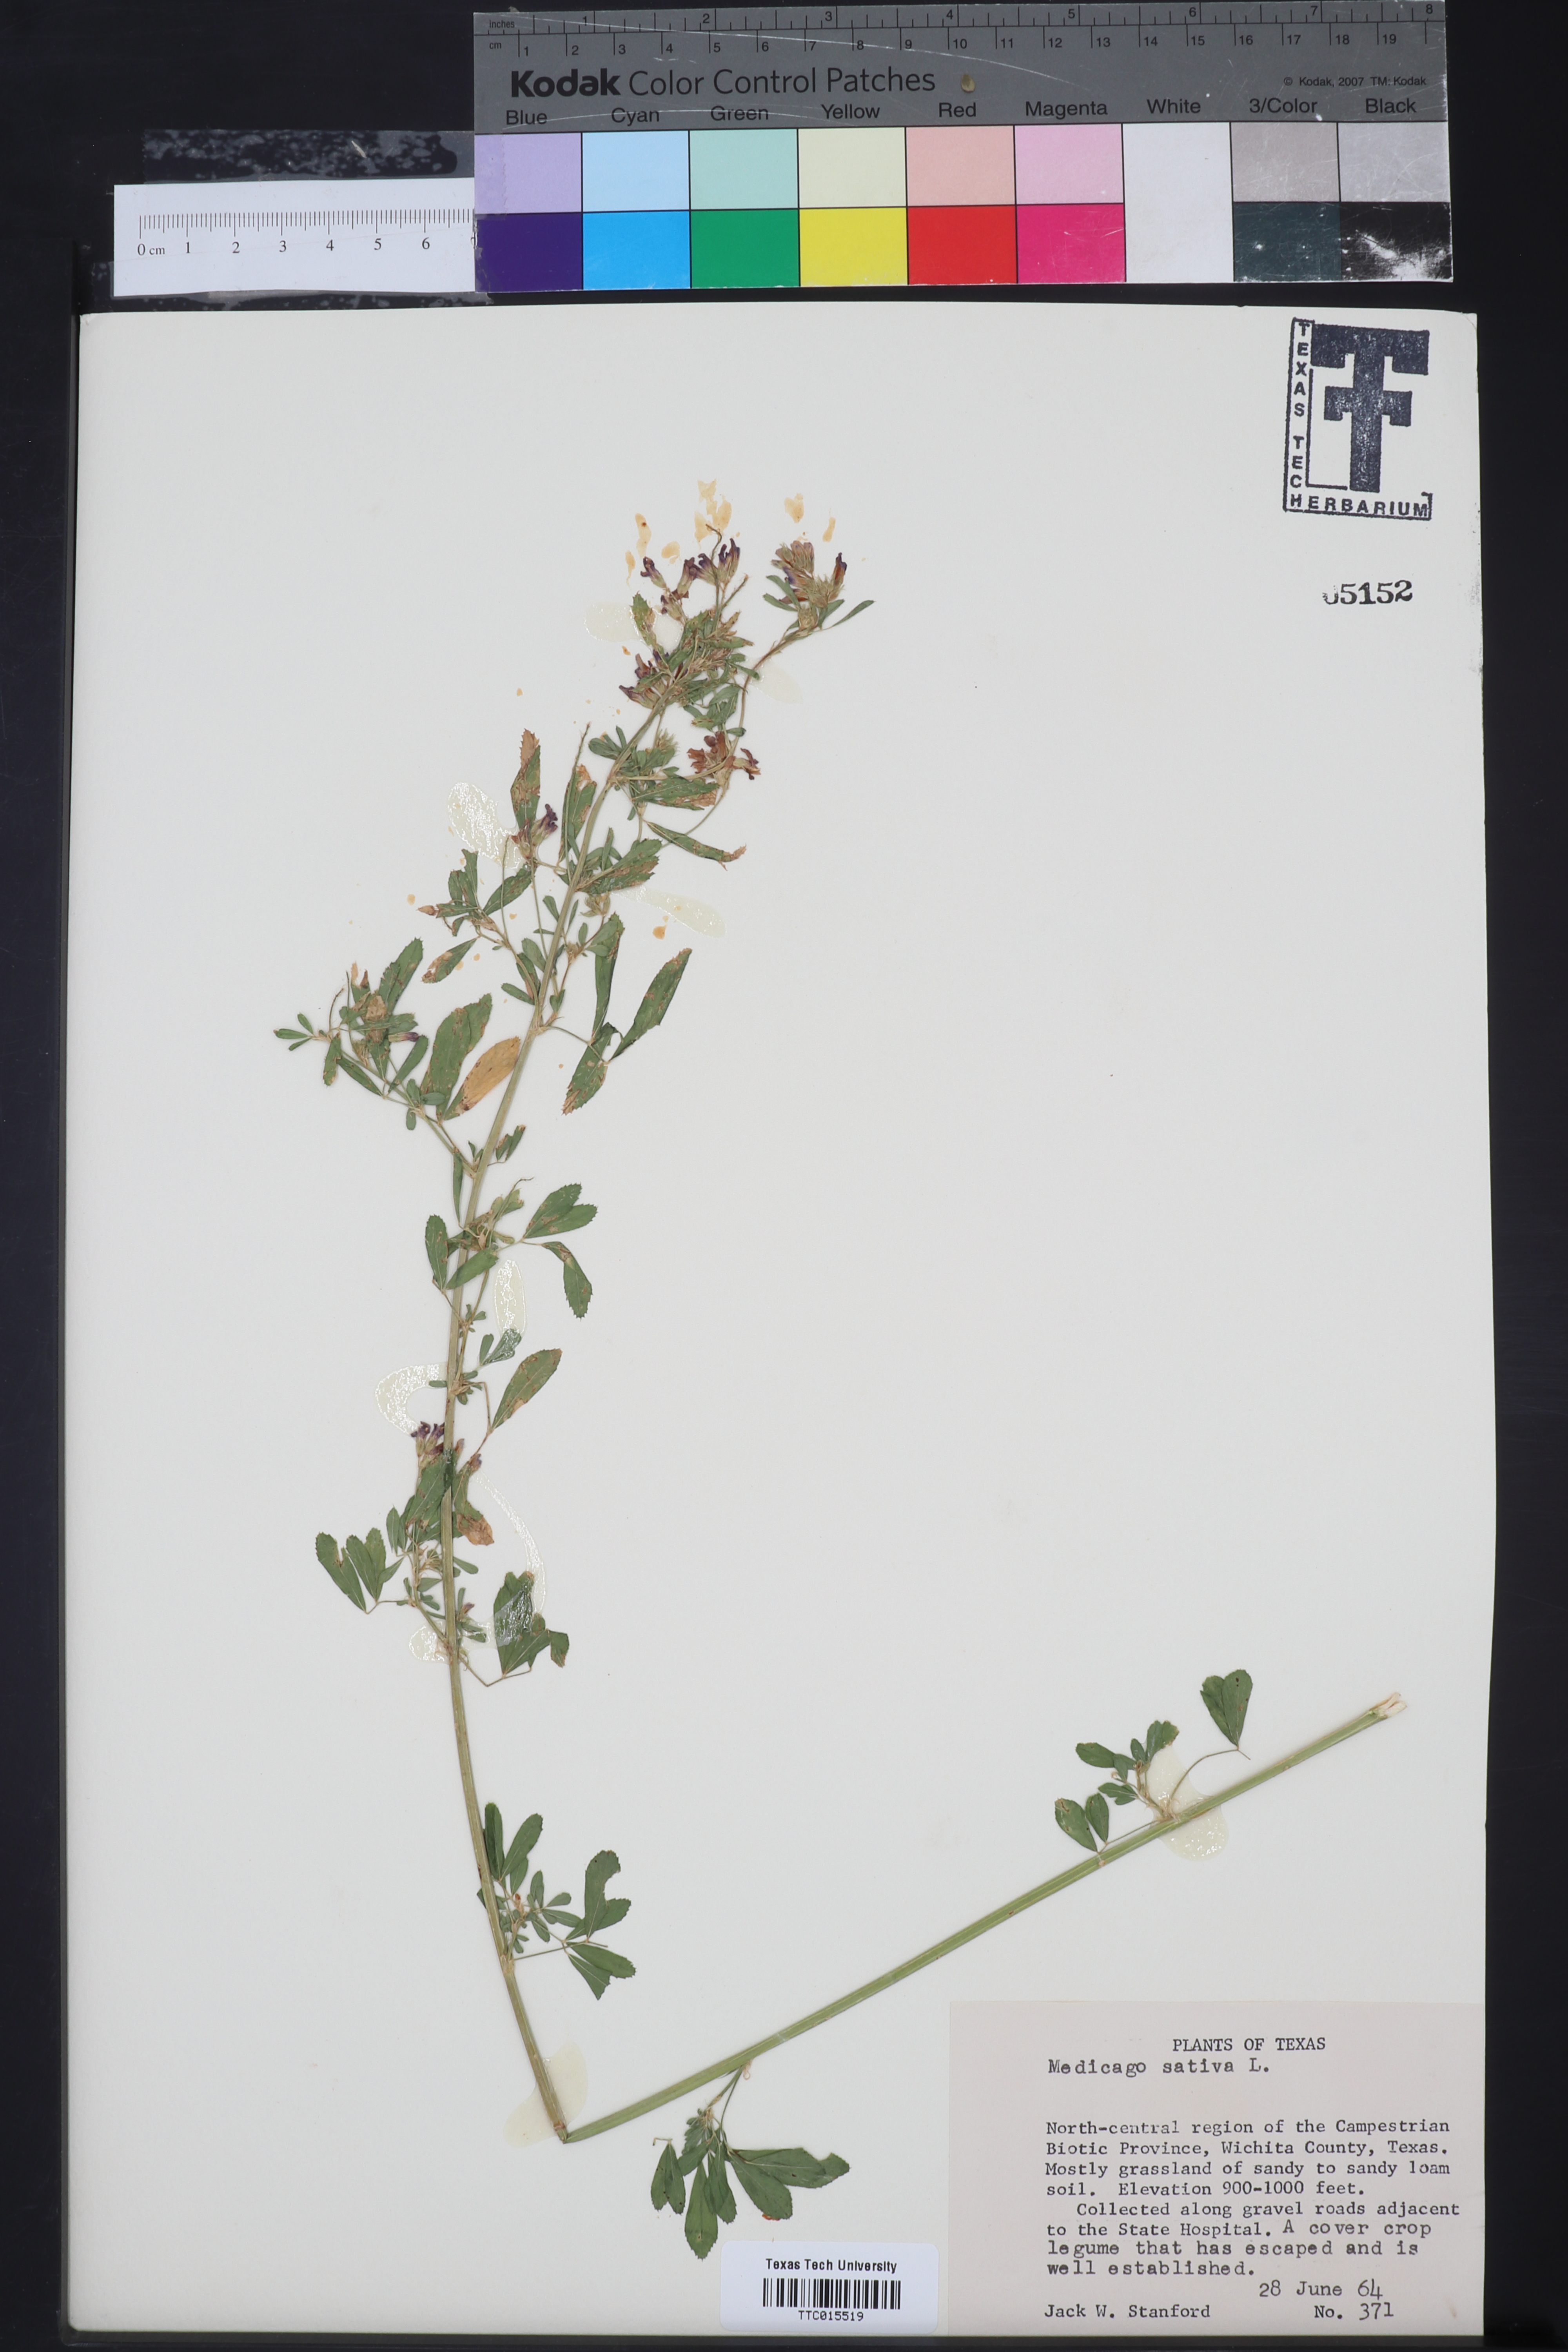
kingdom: Plantae
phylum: Tracheophyta
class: Magnoliopsida
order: Fabales
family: Fabaceae
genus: Medicago
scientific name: Medicago sativa
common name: Alfalfa
